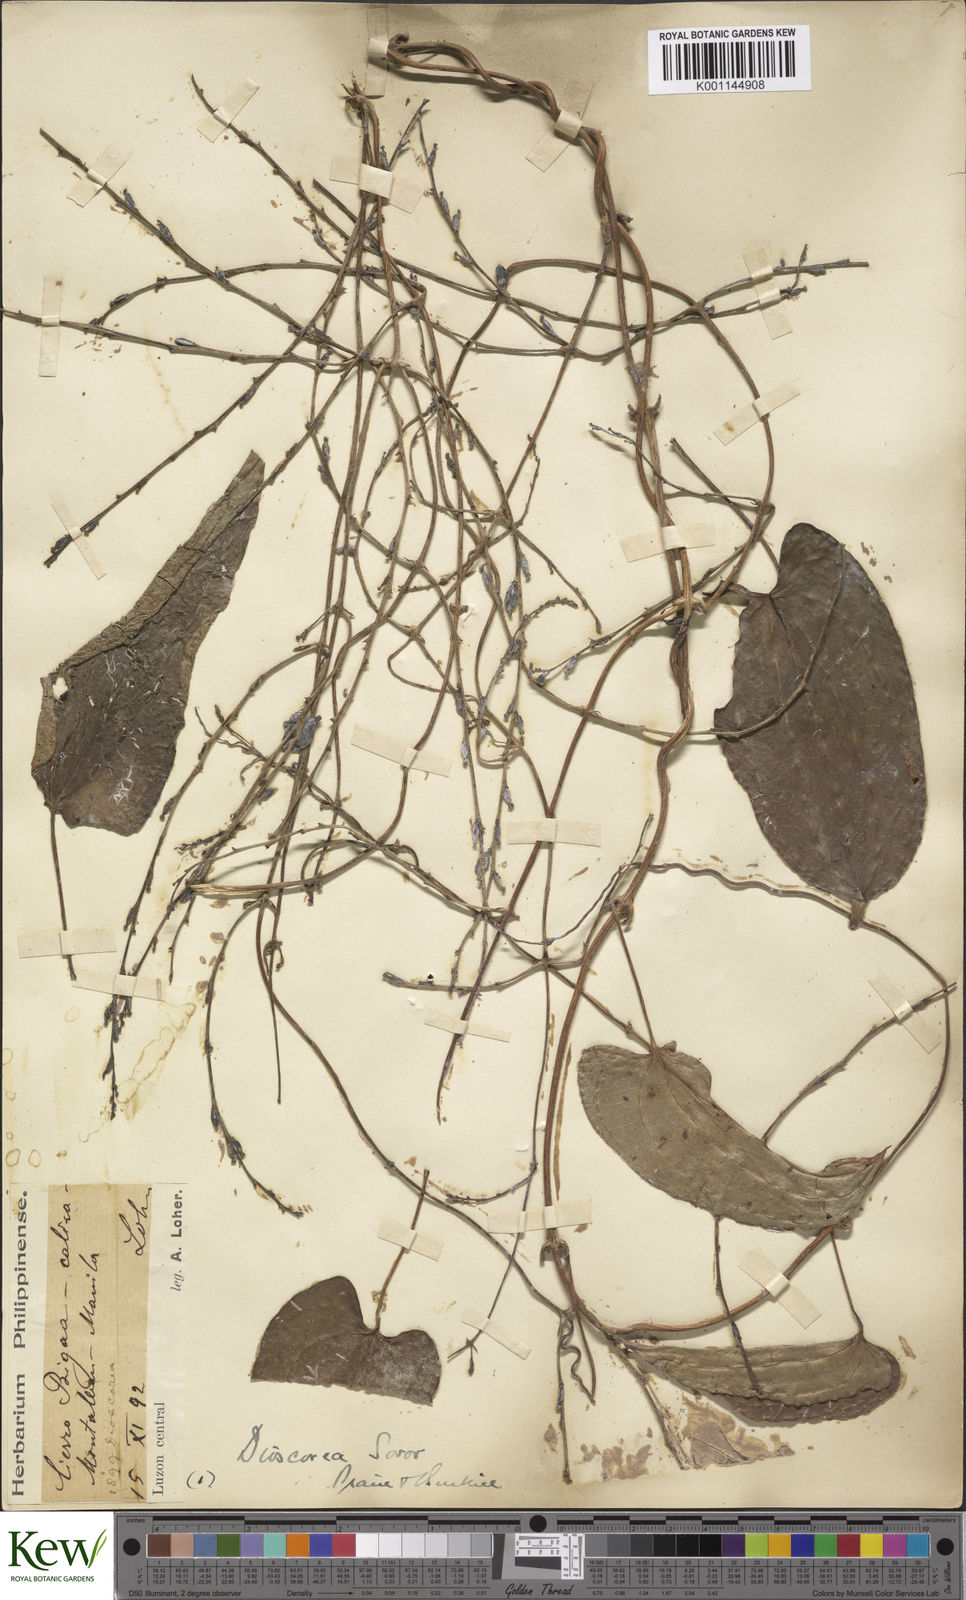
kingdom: Plantae
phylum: Tracheophyta
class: Liliopsida
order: Dioscoreales
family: Dioscoreaceae
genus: Dioscorea
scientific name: Dioscorea divaricata
